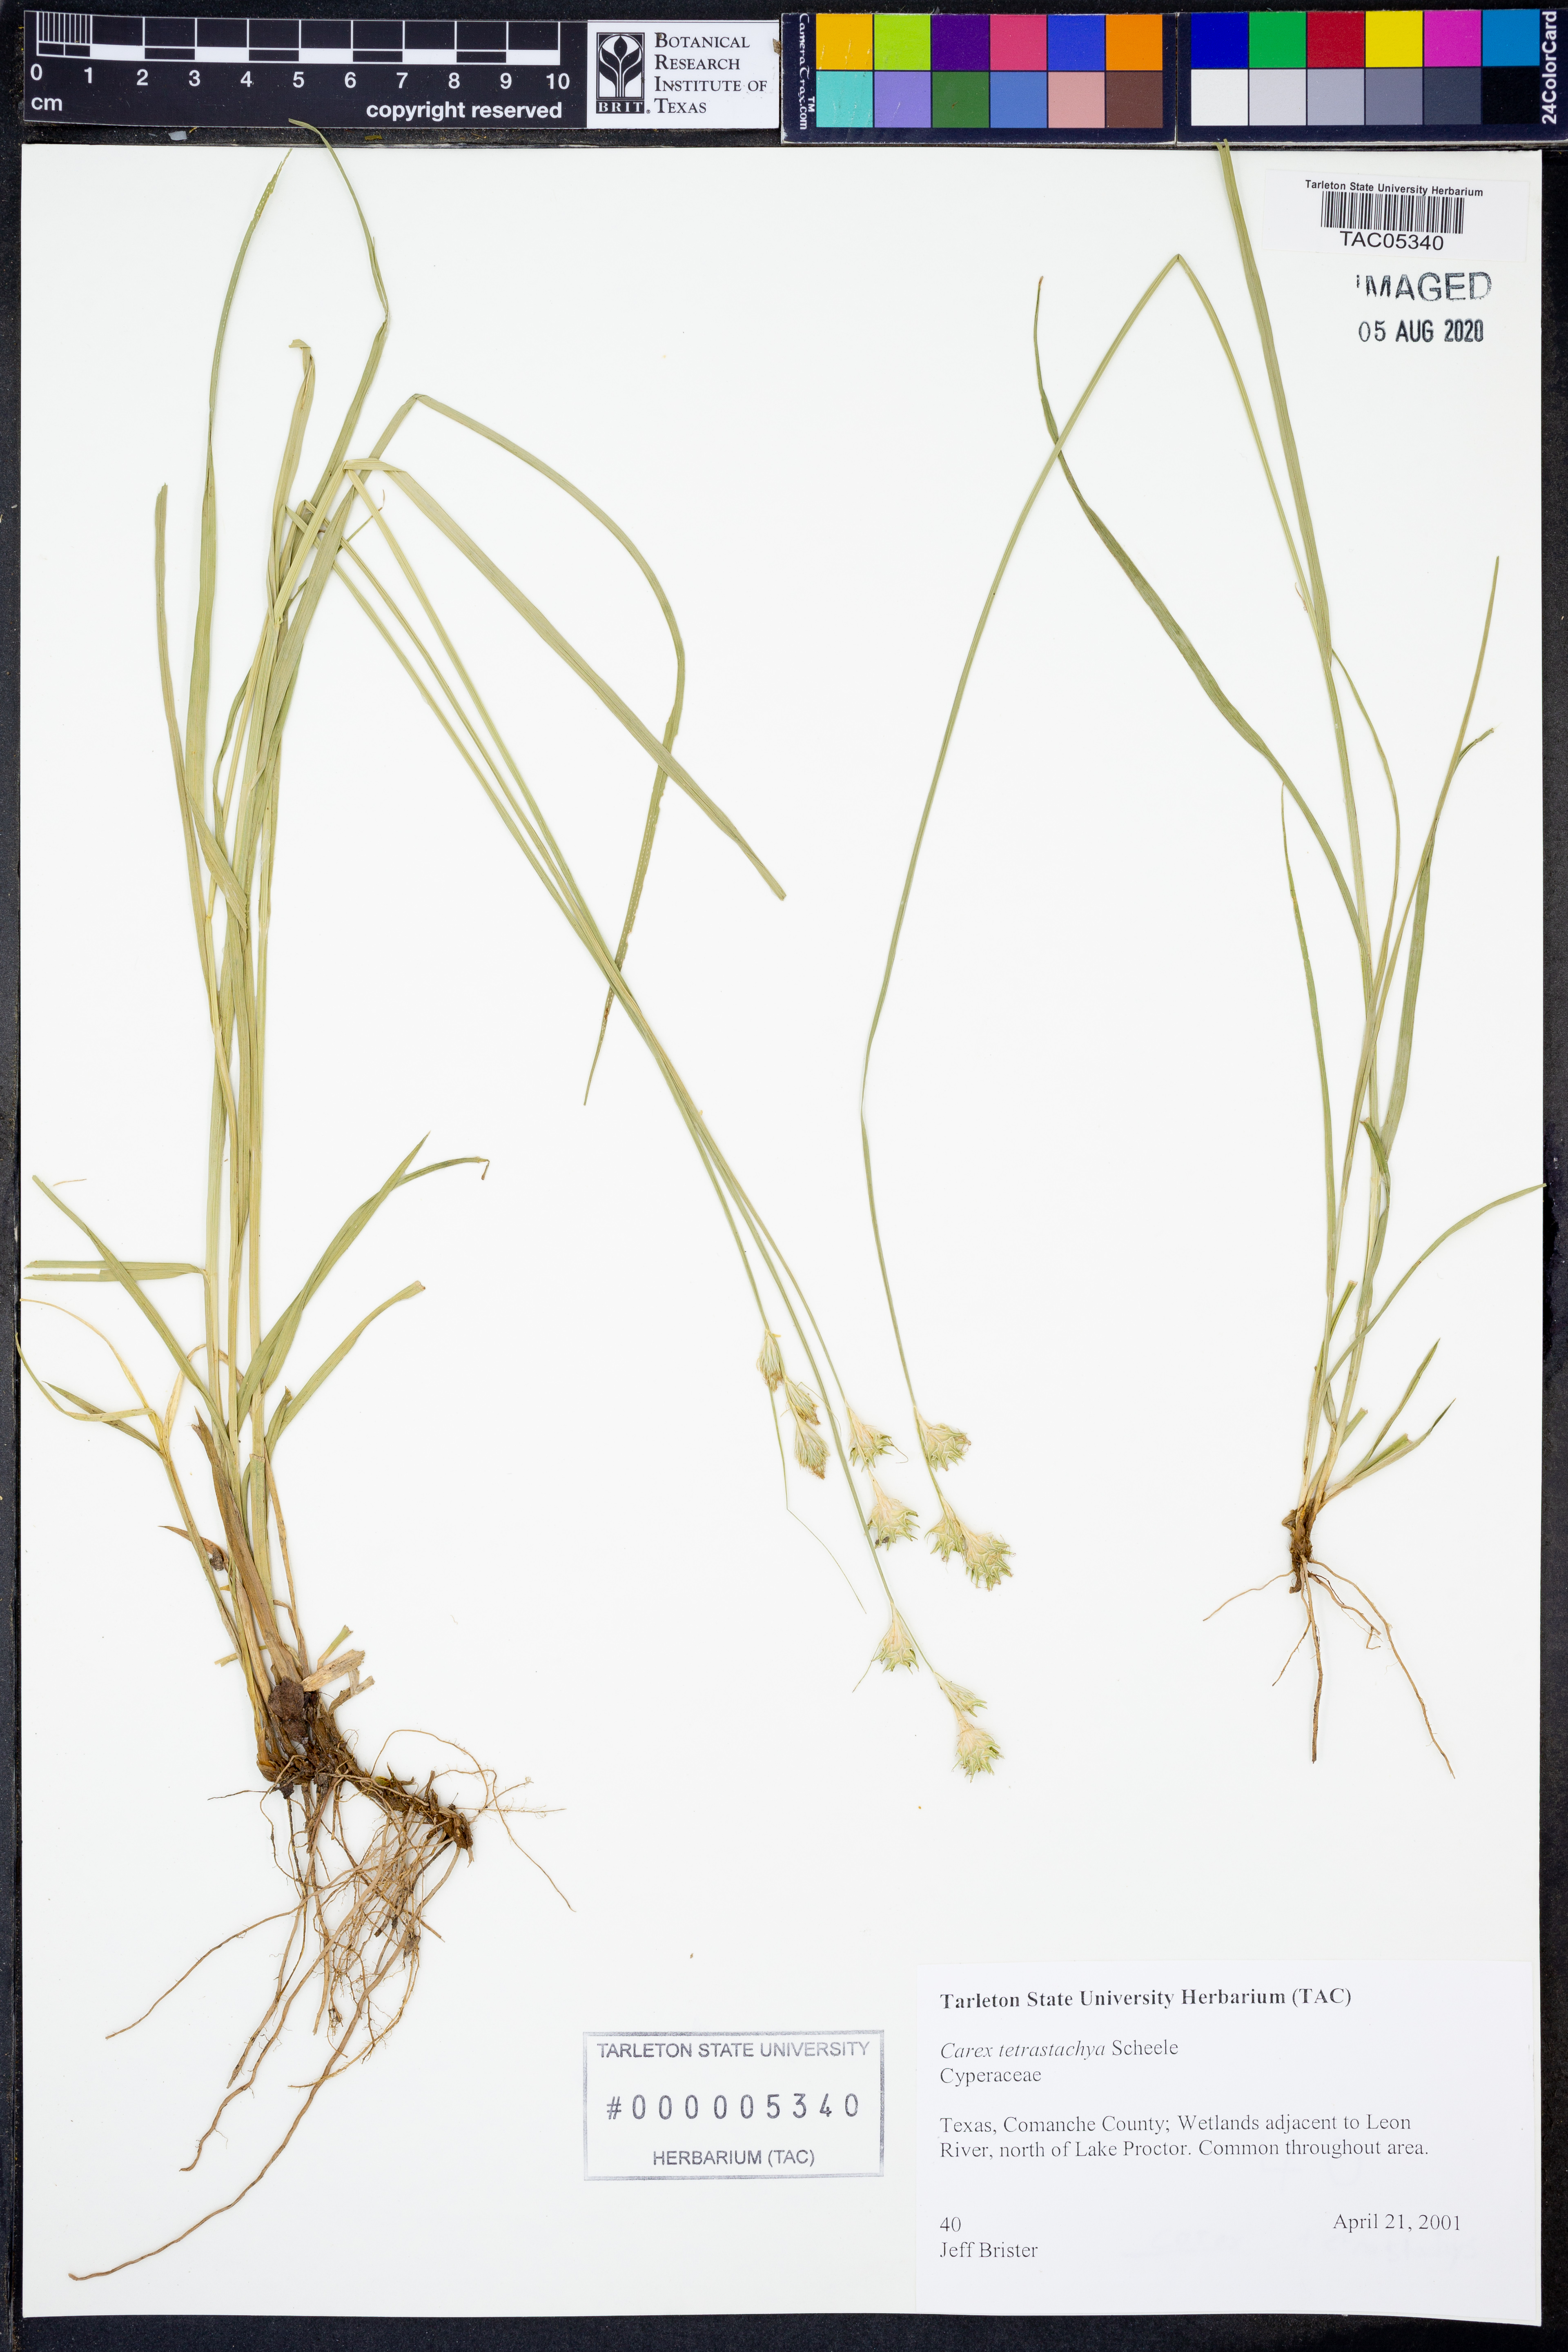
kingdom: Plantae
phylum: Tracheophyta
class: Liliopsida
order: Poales
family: Cyperaceae
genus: Carex
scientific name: Carex tetrastachya
